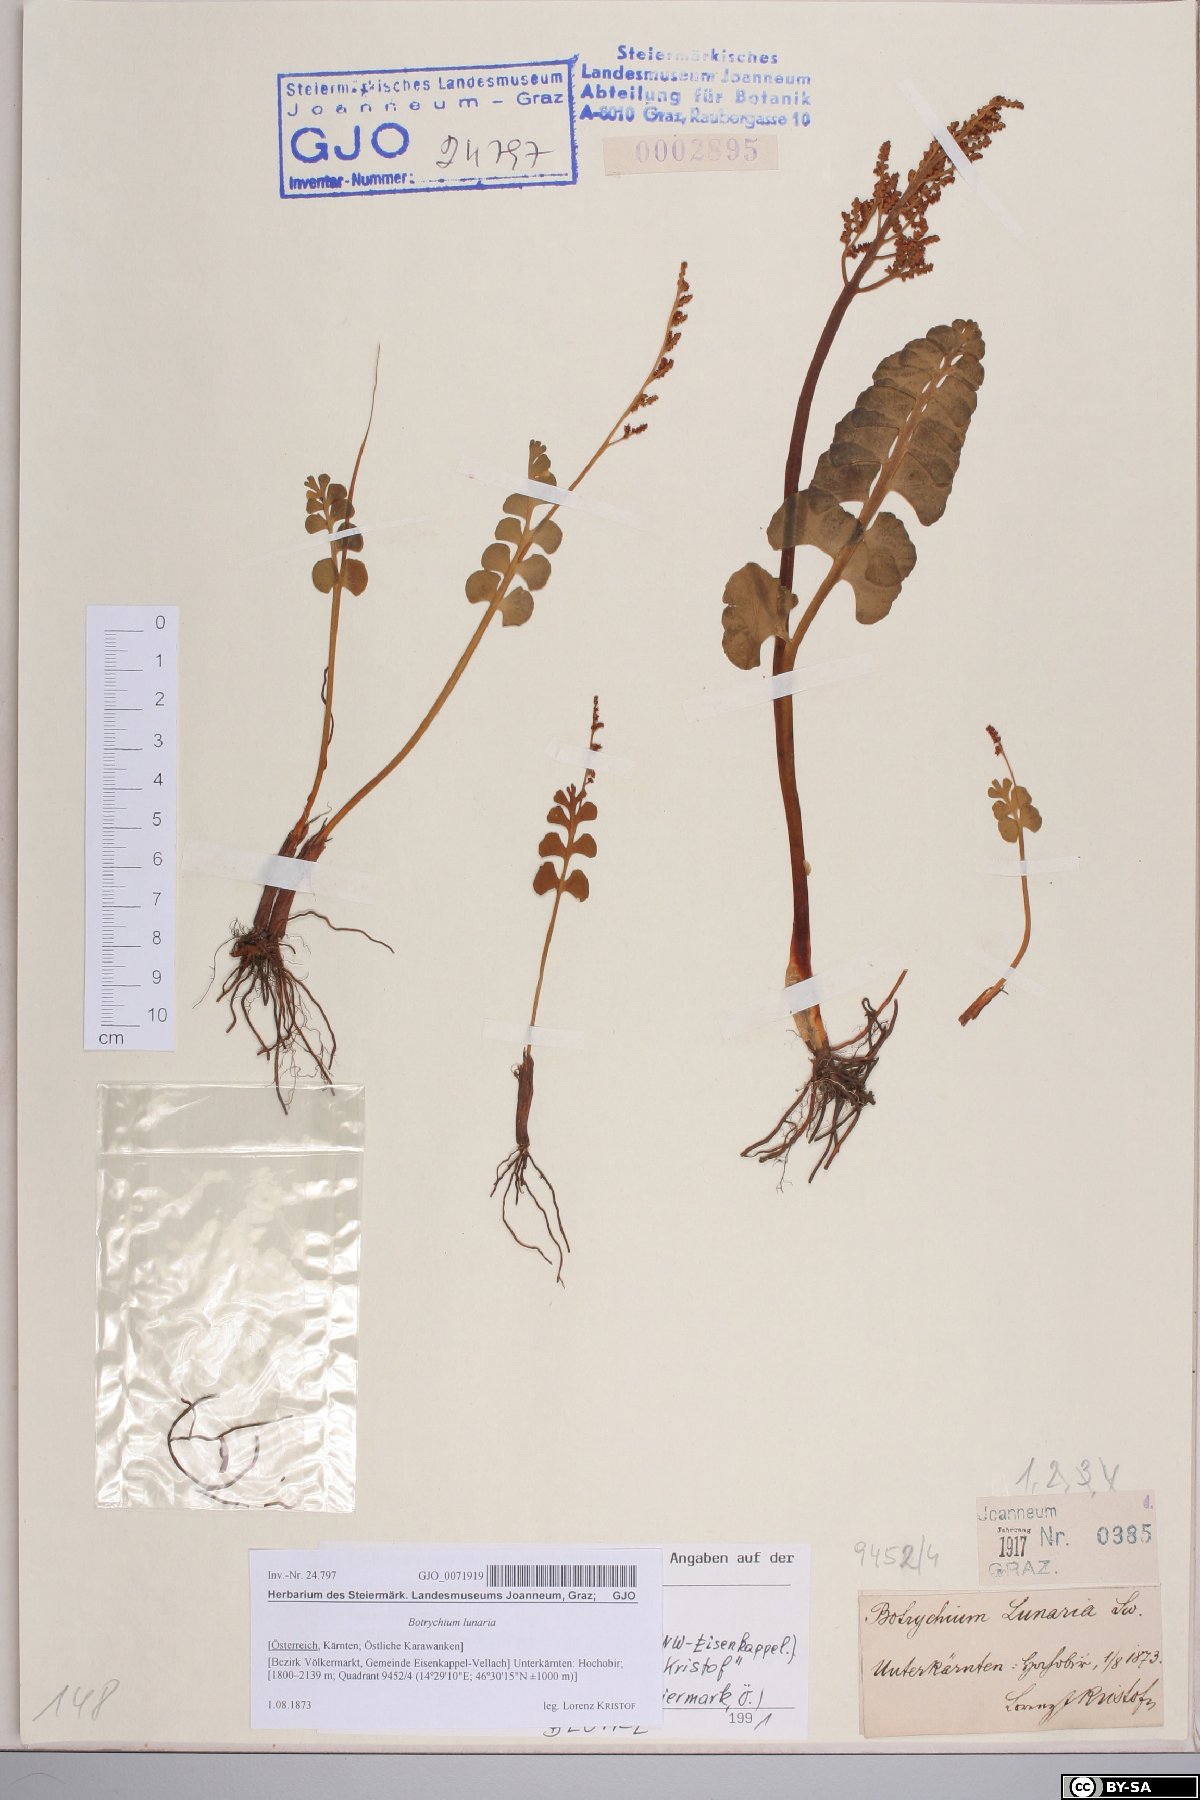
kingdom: Plantae
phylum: Tracheophyta
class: Polypodiopsida
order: Ophioglossales
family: Ophioglossaceae
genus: Botrychium
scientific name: Botrychium lunaria
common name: Moonwort
